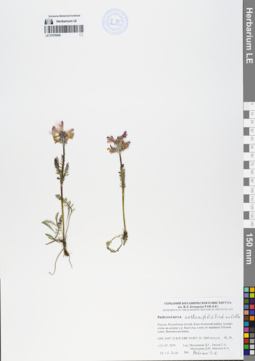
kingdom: Plantae
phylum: Tracheophyta
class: Magnoliopsida
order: Lamiales
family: Orobanchaceae
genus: Pedicularis
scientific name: Pedicularis anthemifolia
